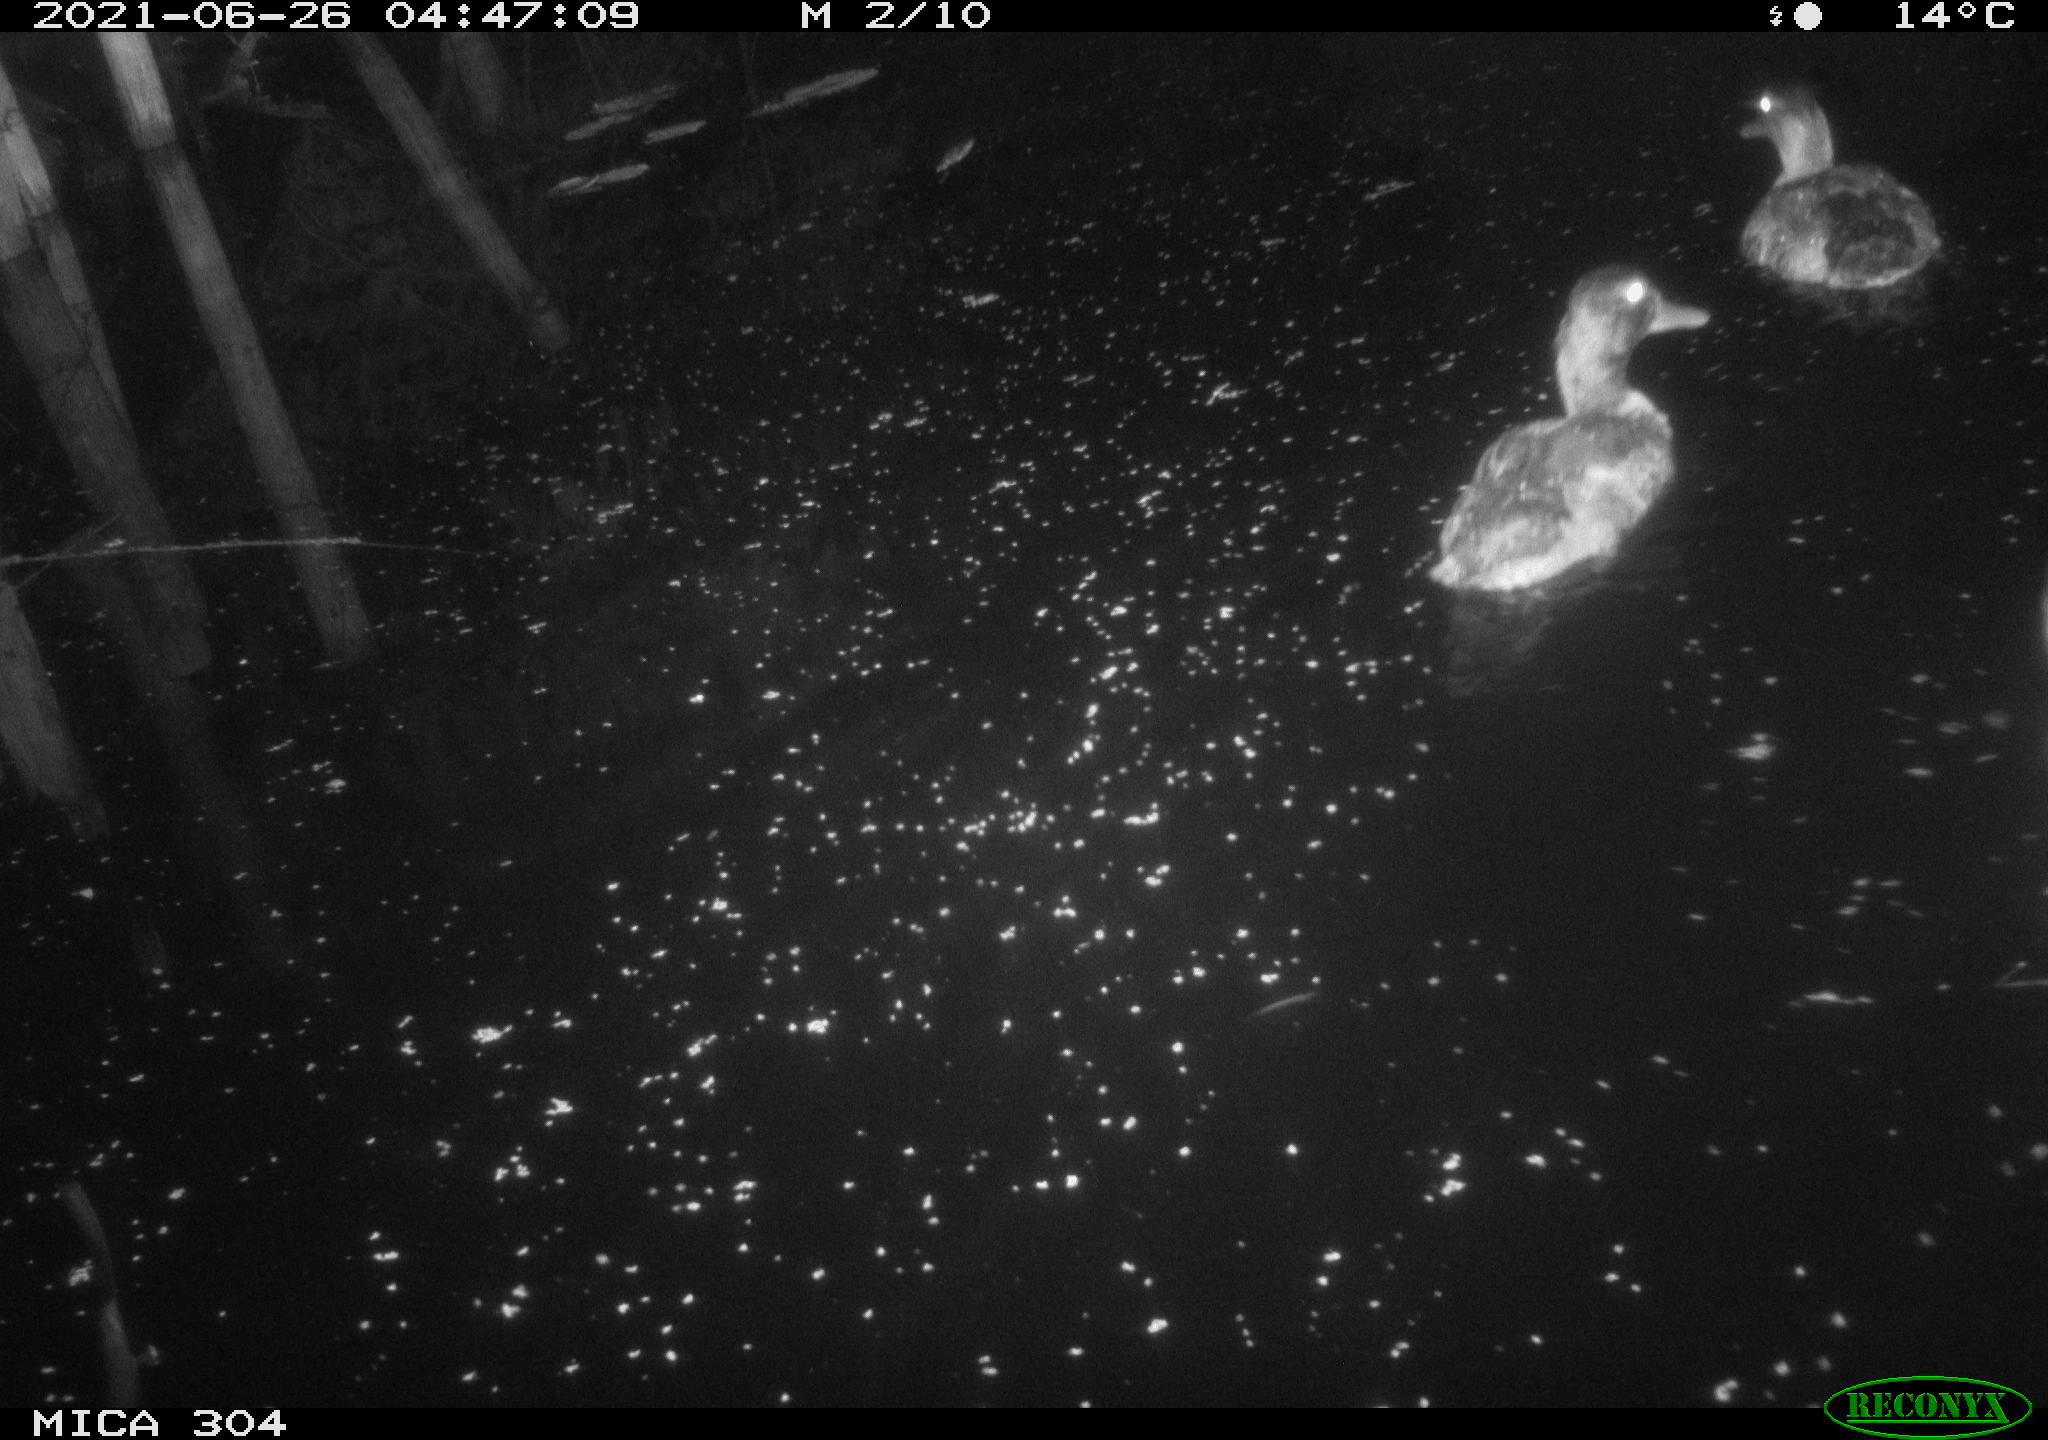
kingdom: Animalia
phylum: Chordata
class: Aves
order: Anseriformes
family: Anatidae
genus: Mareca
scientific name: Mareca strepera
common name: Gadwall
